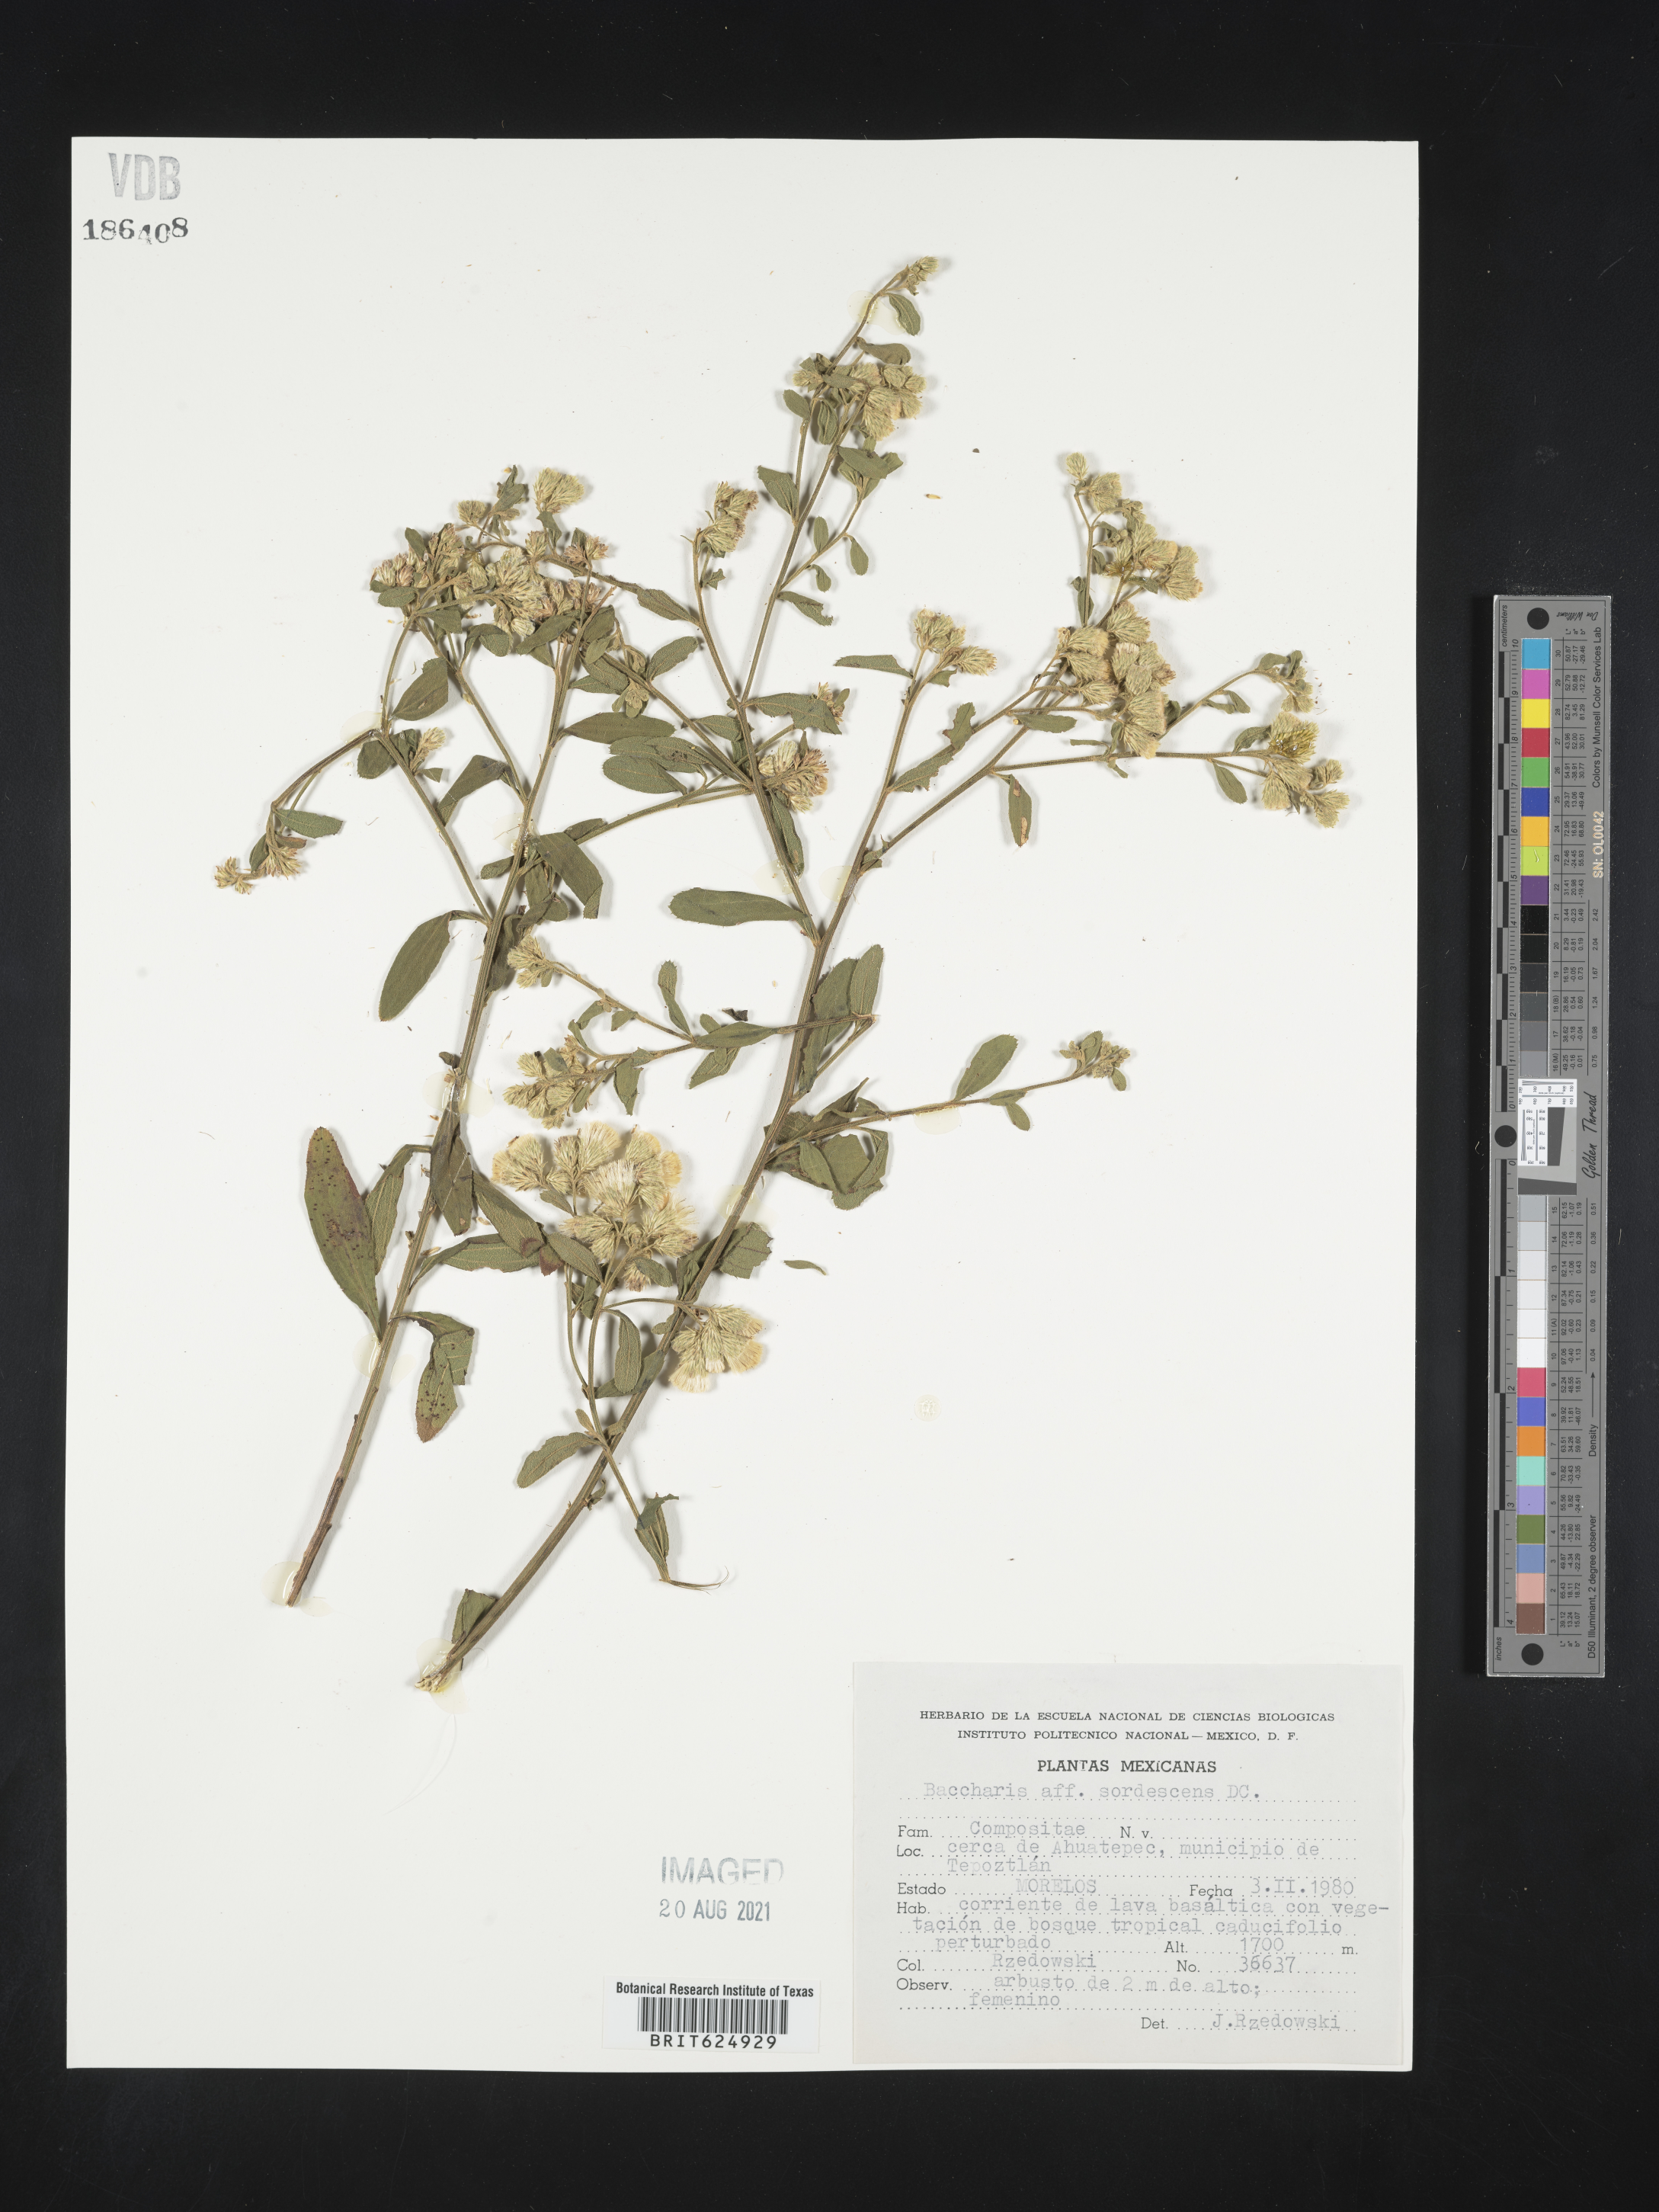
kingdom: Plantae
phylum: Tracheophyta
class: Magnoliopsida
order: Asterales
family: Asteraceae
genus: Baccharis
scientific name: Baccharis
